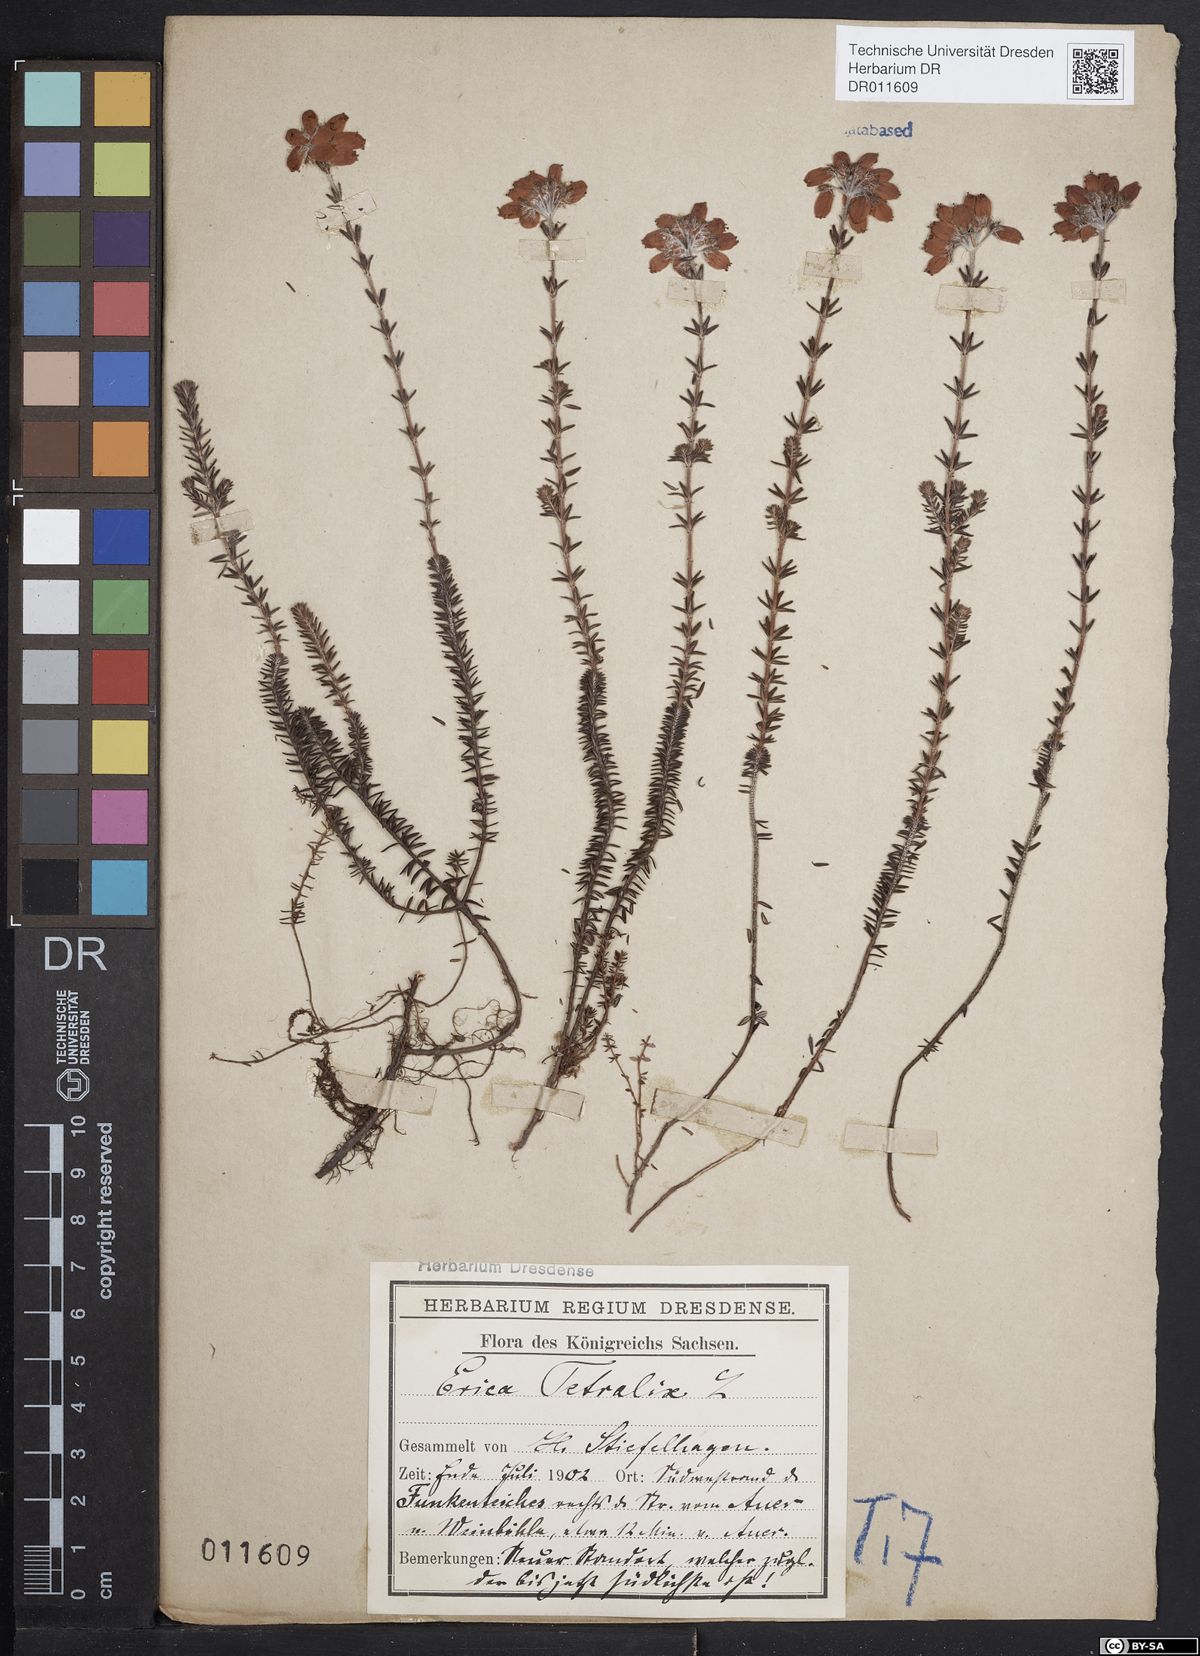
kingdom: Plantae
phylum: Tracheophyta
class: Magnoliopsida
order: Ericales
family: Ericaceae
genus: Erica
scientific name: Erica tetralix
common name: Cross-leaved heath
